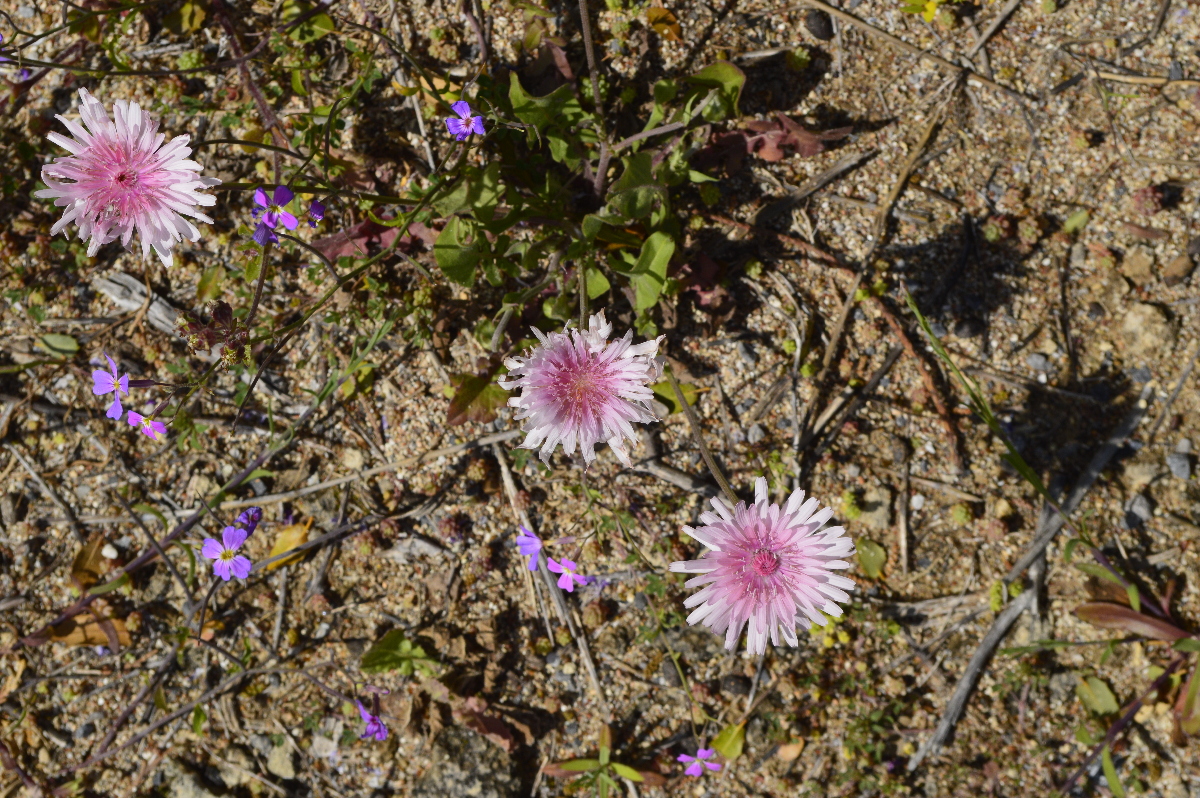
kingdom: Plantae
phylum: Tracheophyta
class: Magnoliopsida
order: Asterales
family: Asteraceae
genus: Crepis
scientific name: Crepis rubra
